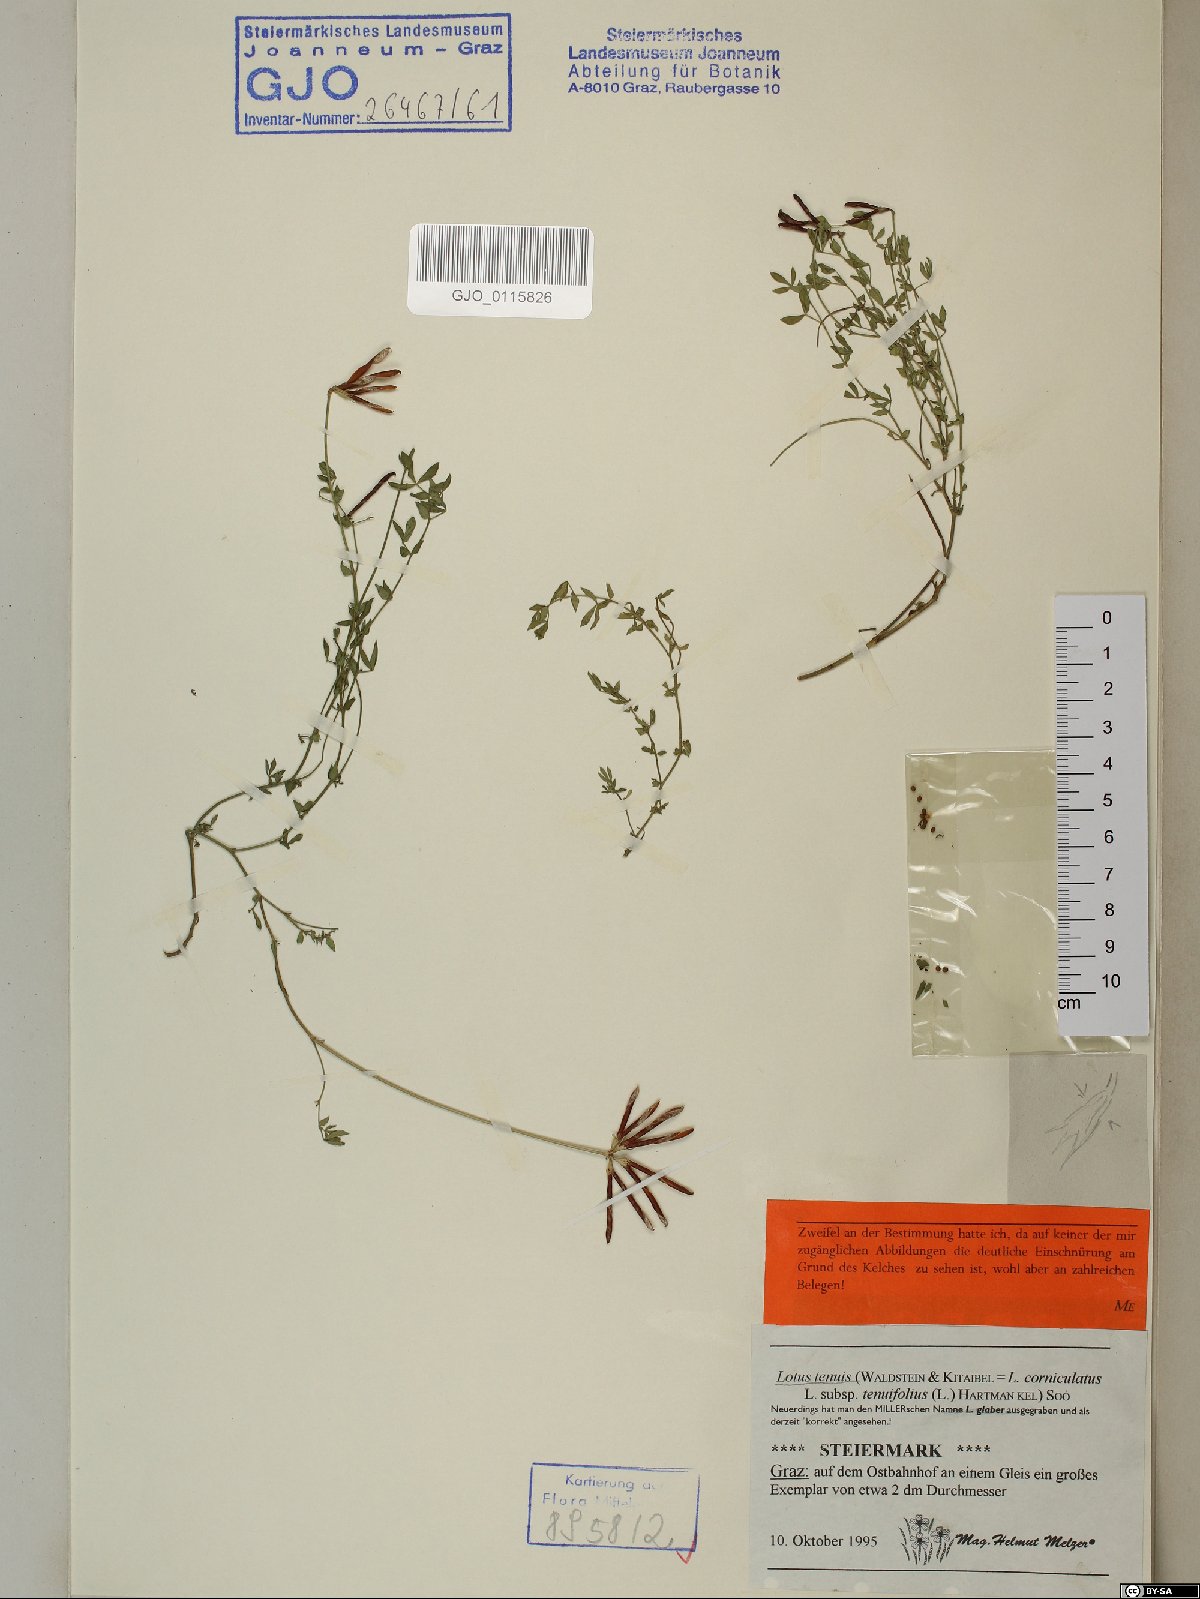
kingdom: Plantae
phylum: Tracheophyta
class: Magnoliopsida
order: Fabales
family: Fabaceae
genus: Lotus
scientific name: Lotus tenuis
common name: Narrow-leaved bird's-foot-trefoil
